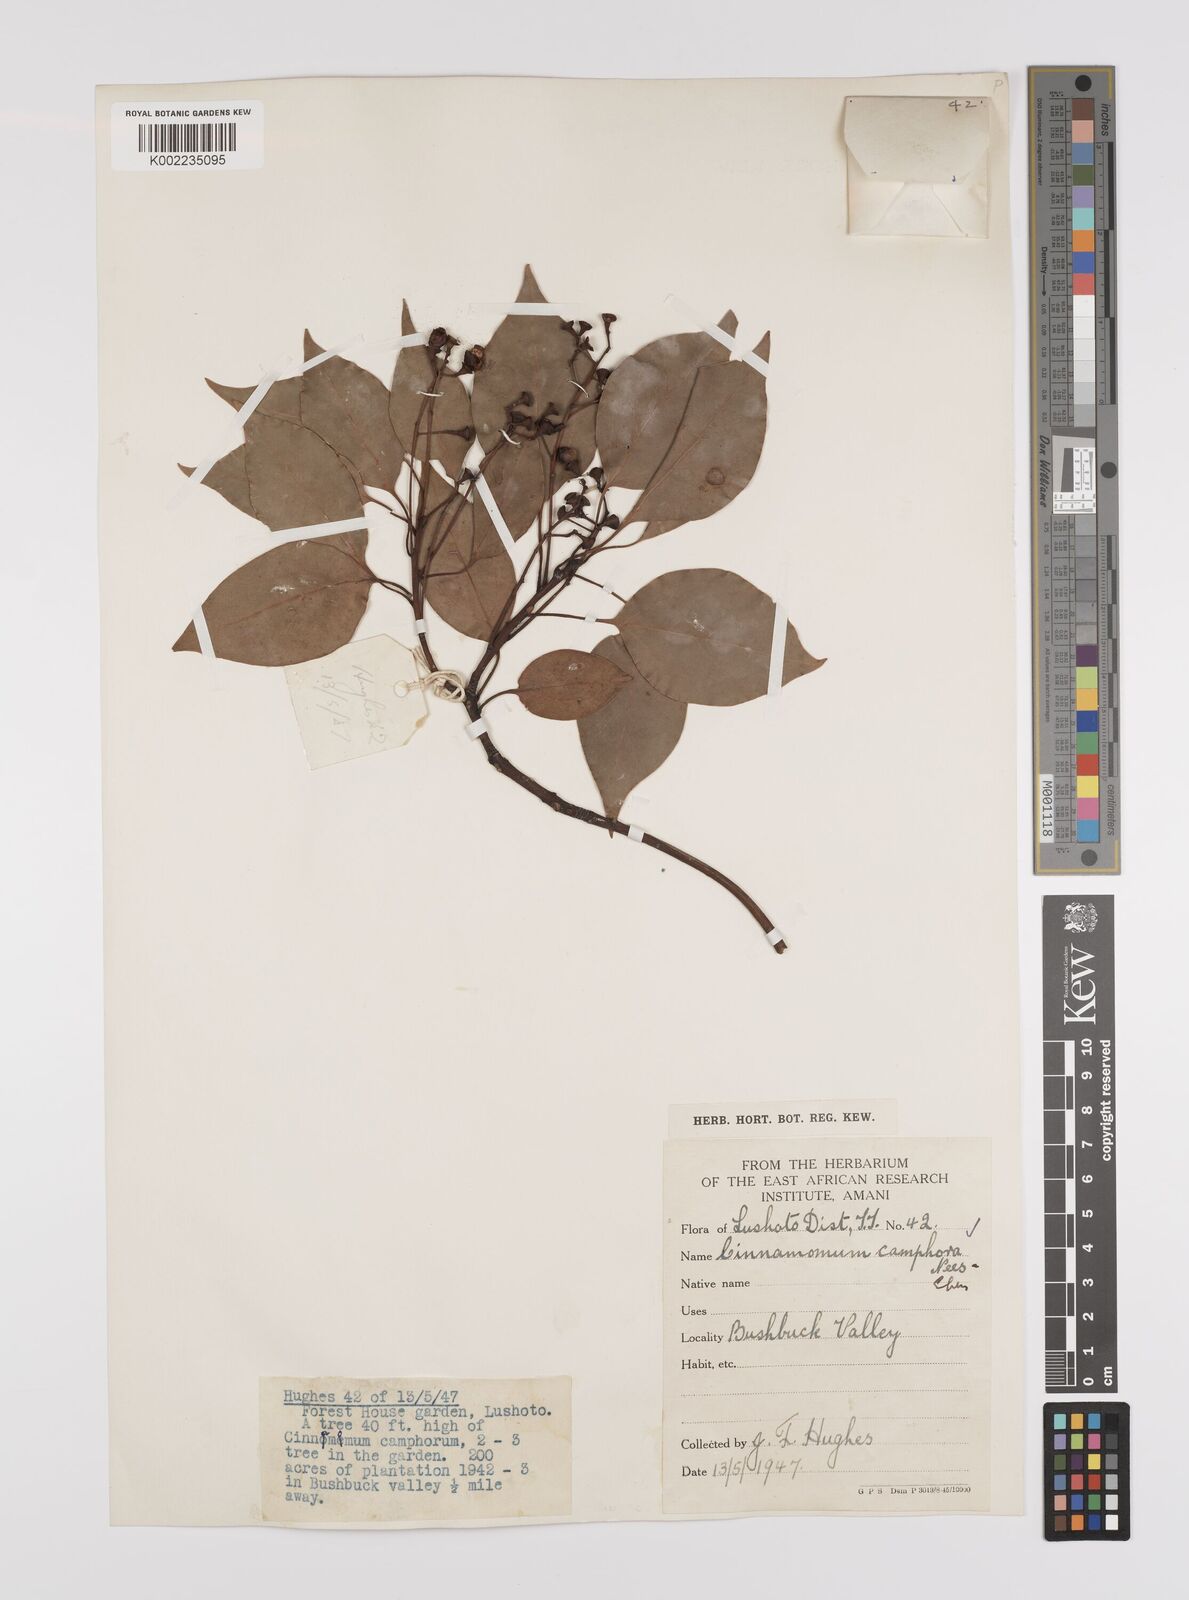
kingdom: Plantae
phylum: Tracheophyta
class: Magnoliopsida
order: Laurales
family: Lauraceae
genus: Cinnamomum
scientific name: Cinnamomum camphora
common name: Camphortree
